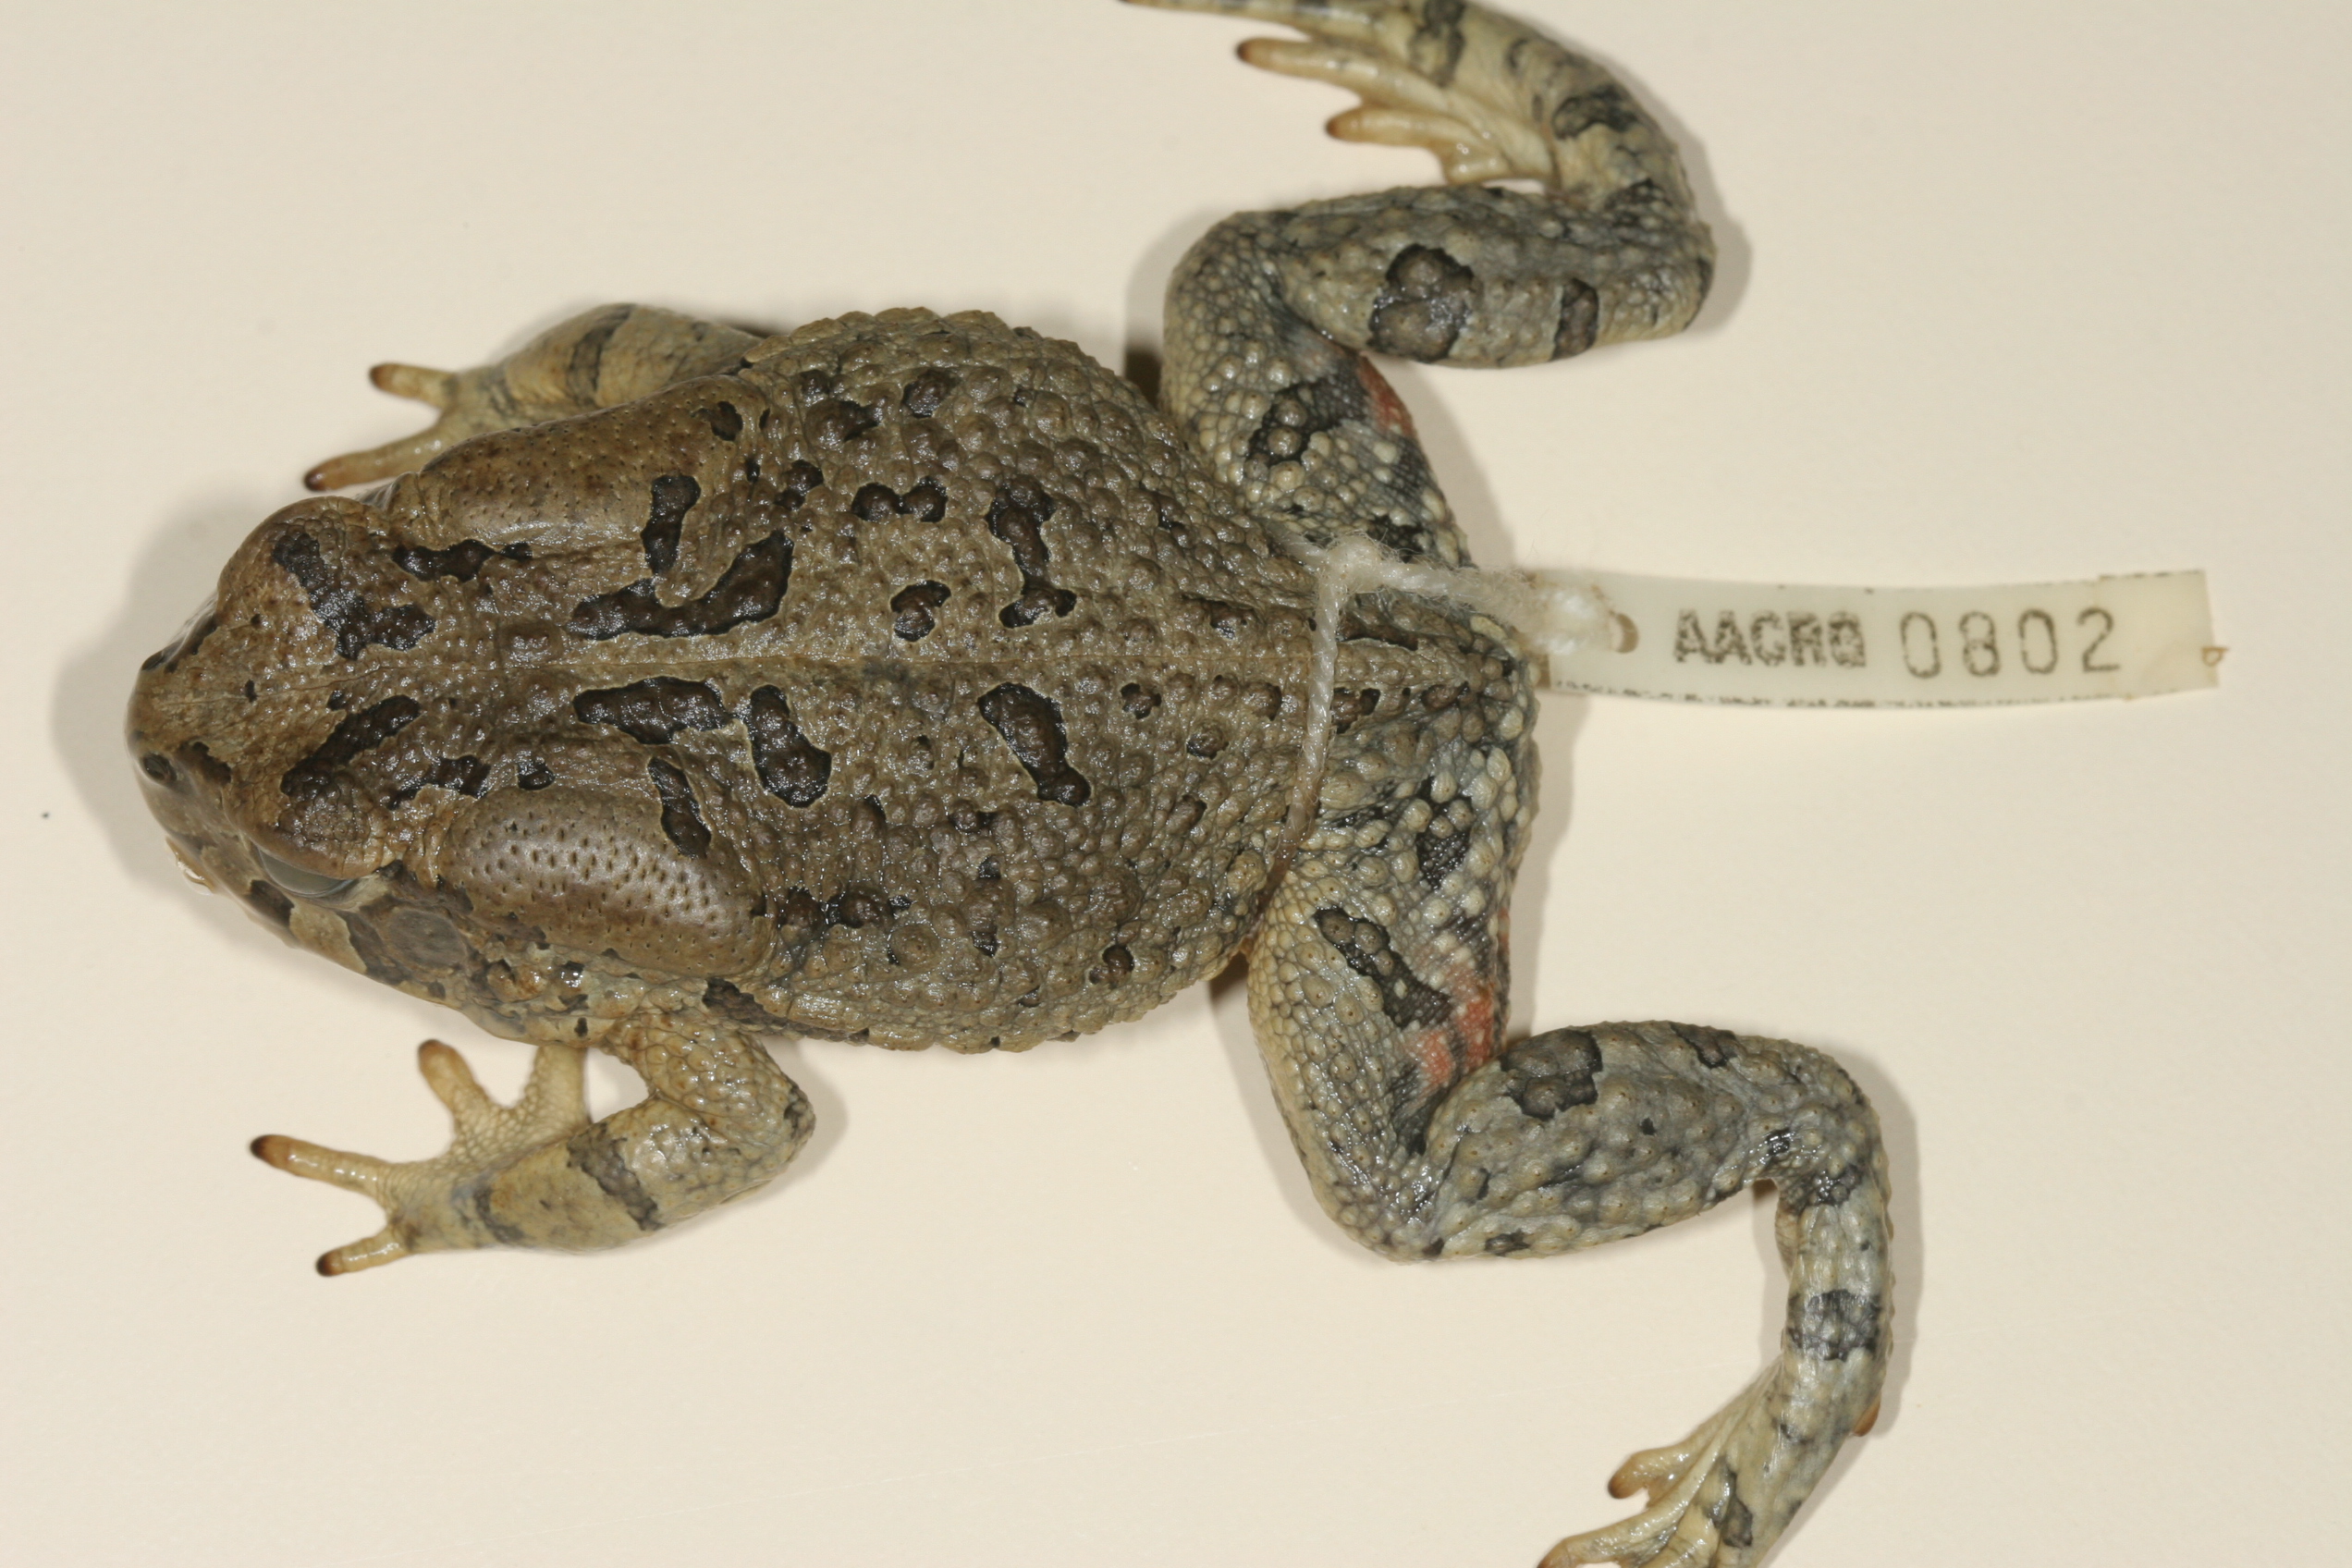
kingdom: Animalia
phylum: Chordata
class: Amphibia
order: Anura
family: Bufonidae
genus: Sclerophrys
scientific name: Sclerophrys poweri
